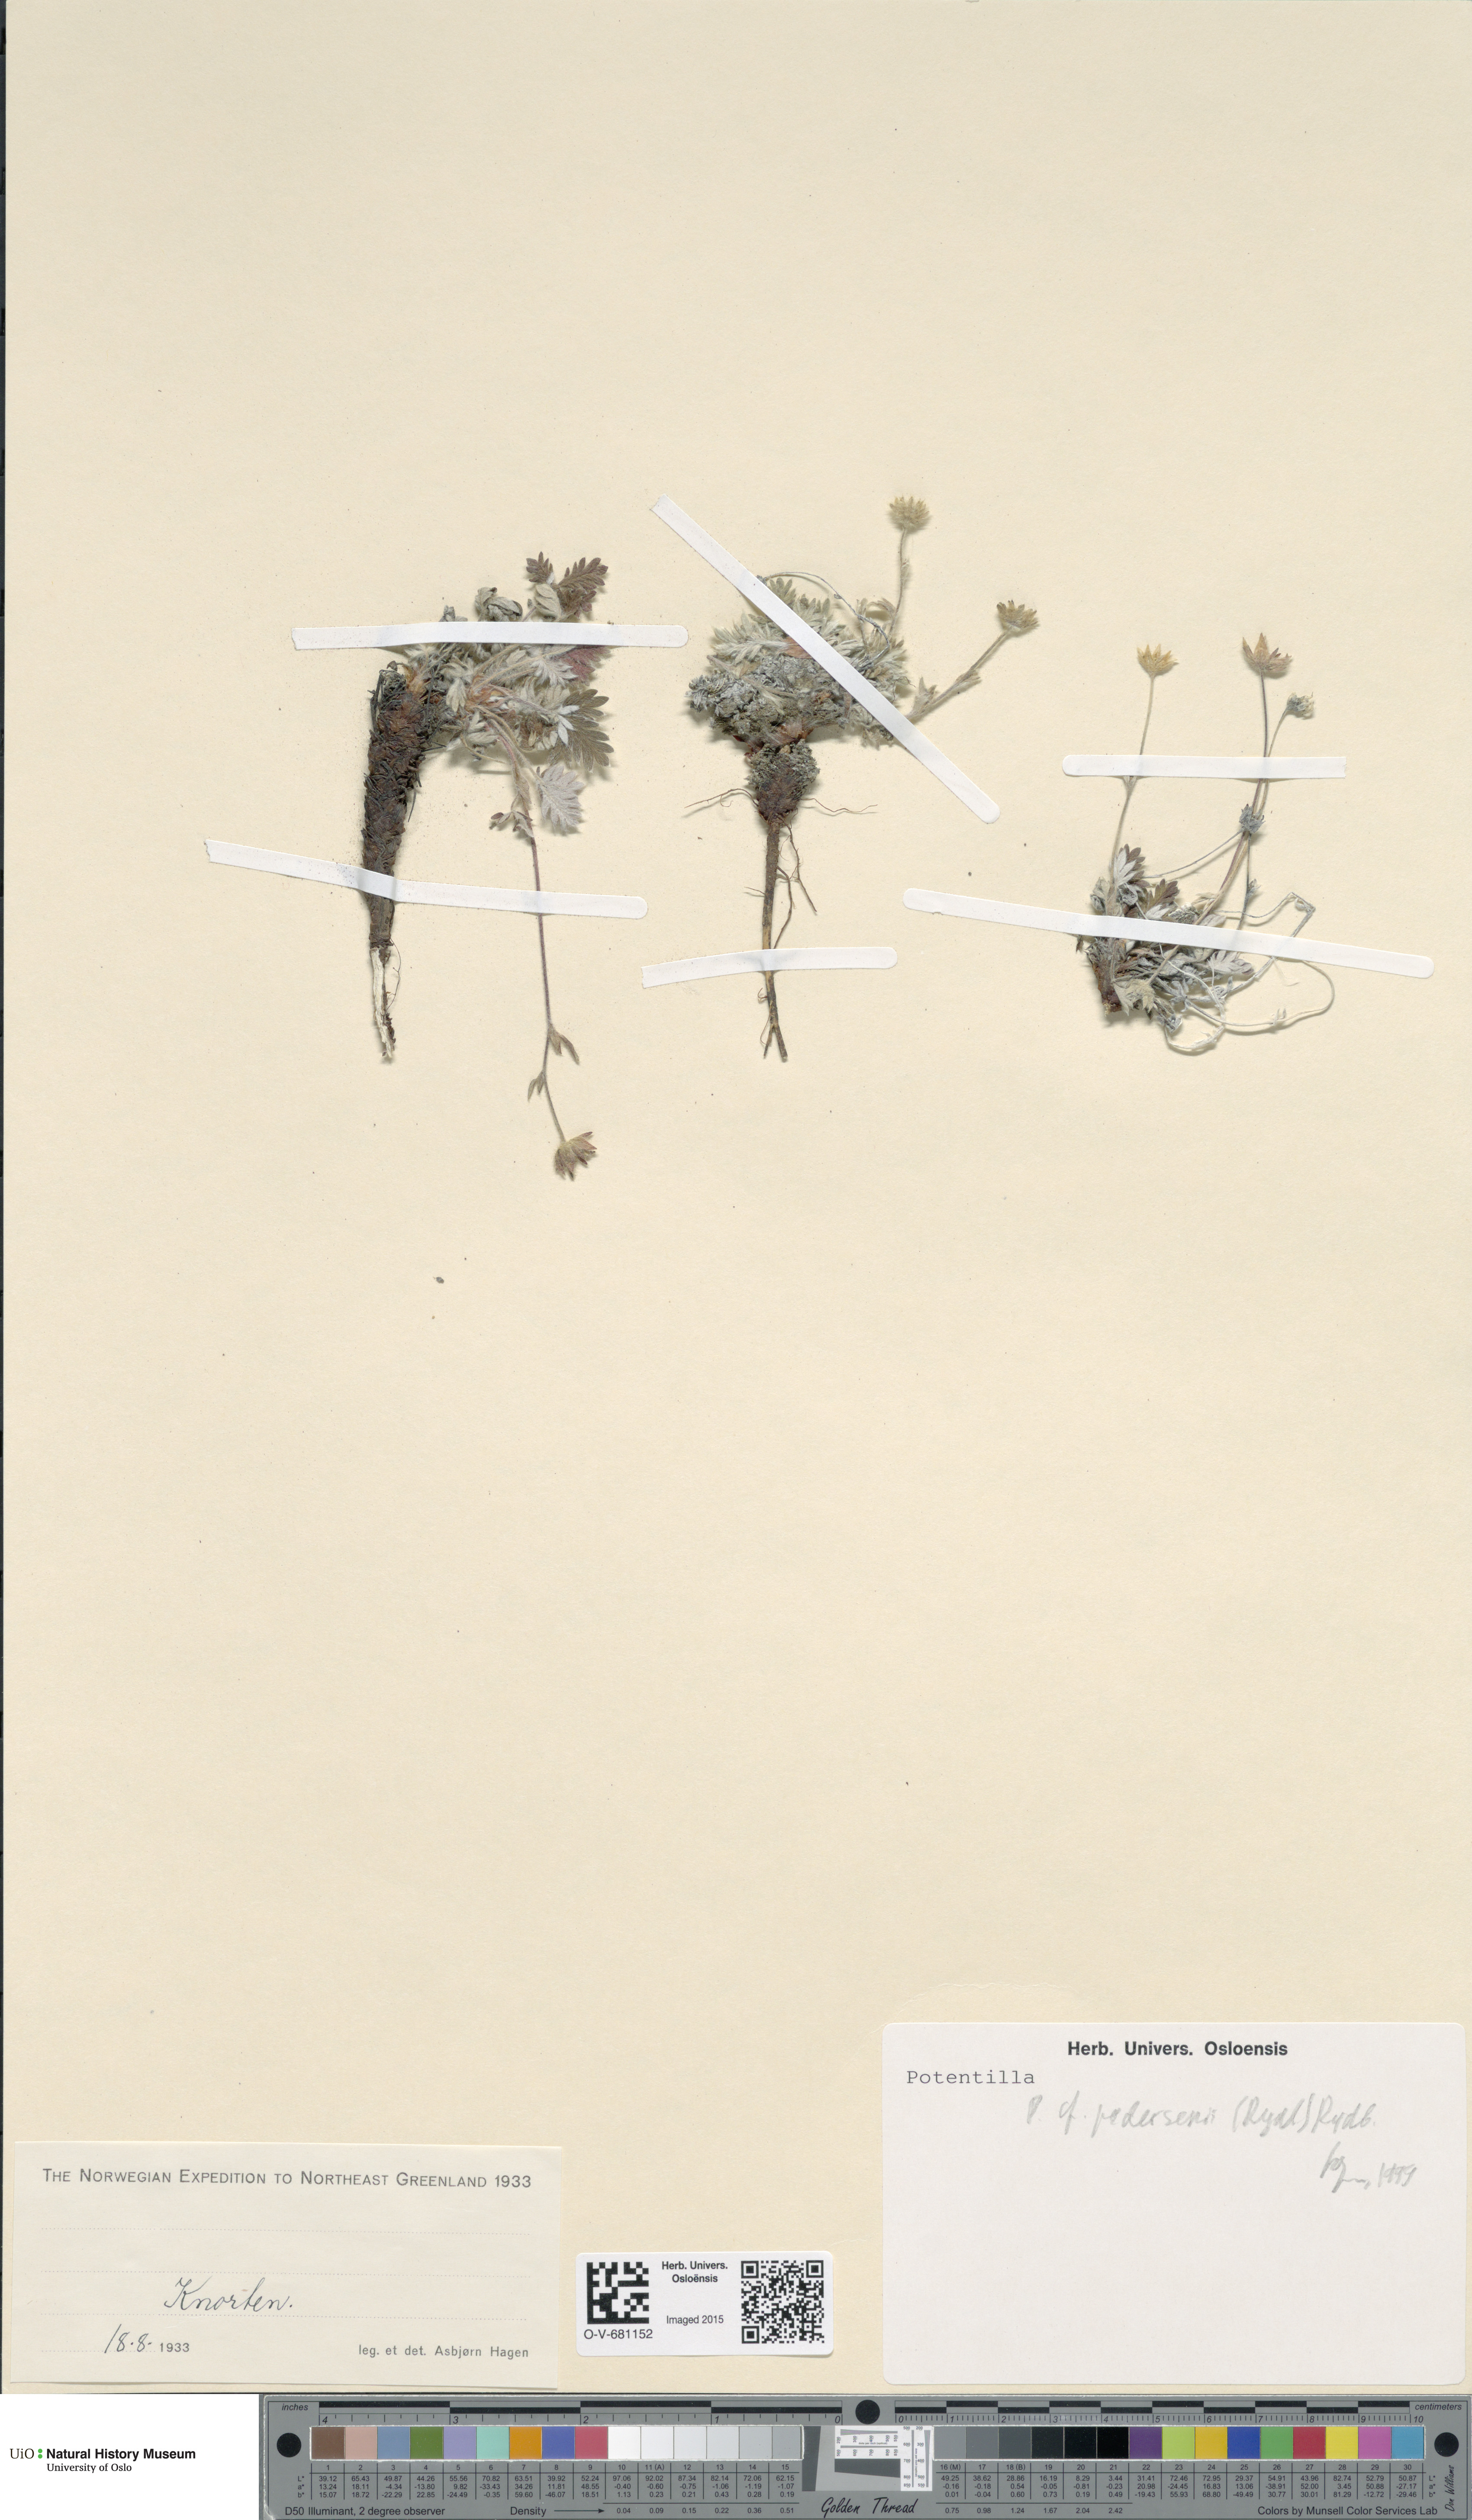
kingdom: Plantae
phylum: Tracheophyta
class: Magnoliopsida
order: Rosales
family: Rosaceae
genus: Potentilla
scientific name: Potentilla pedersenii
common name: Pedersen's cinquefoil
